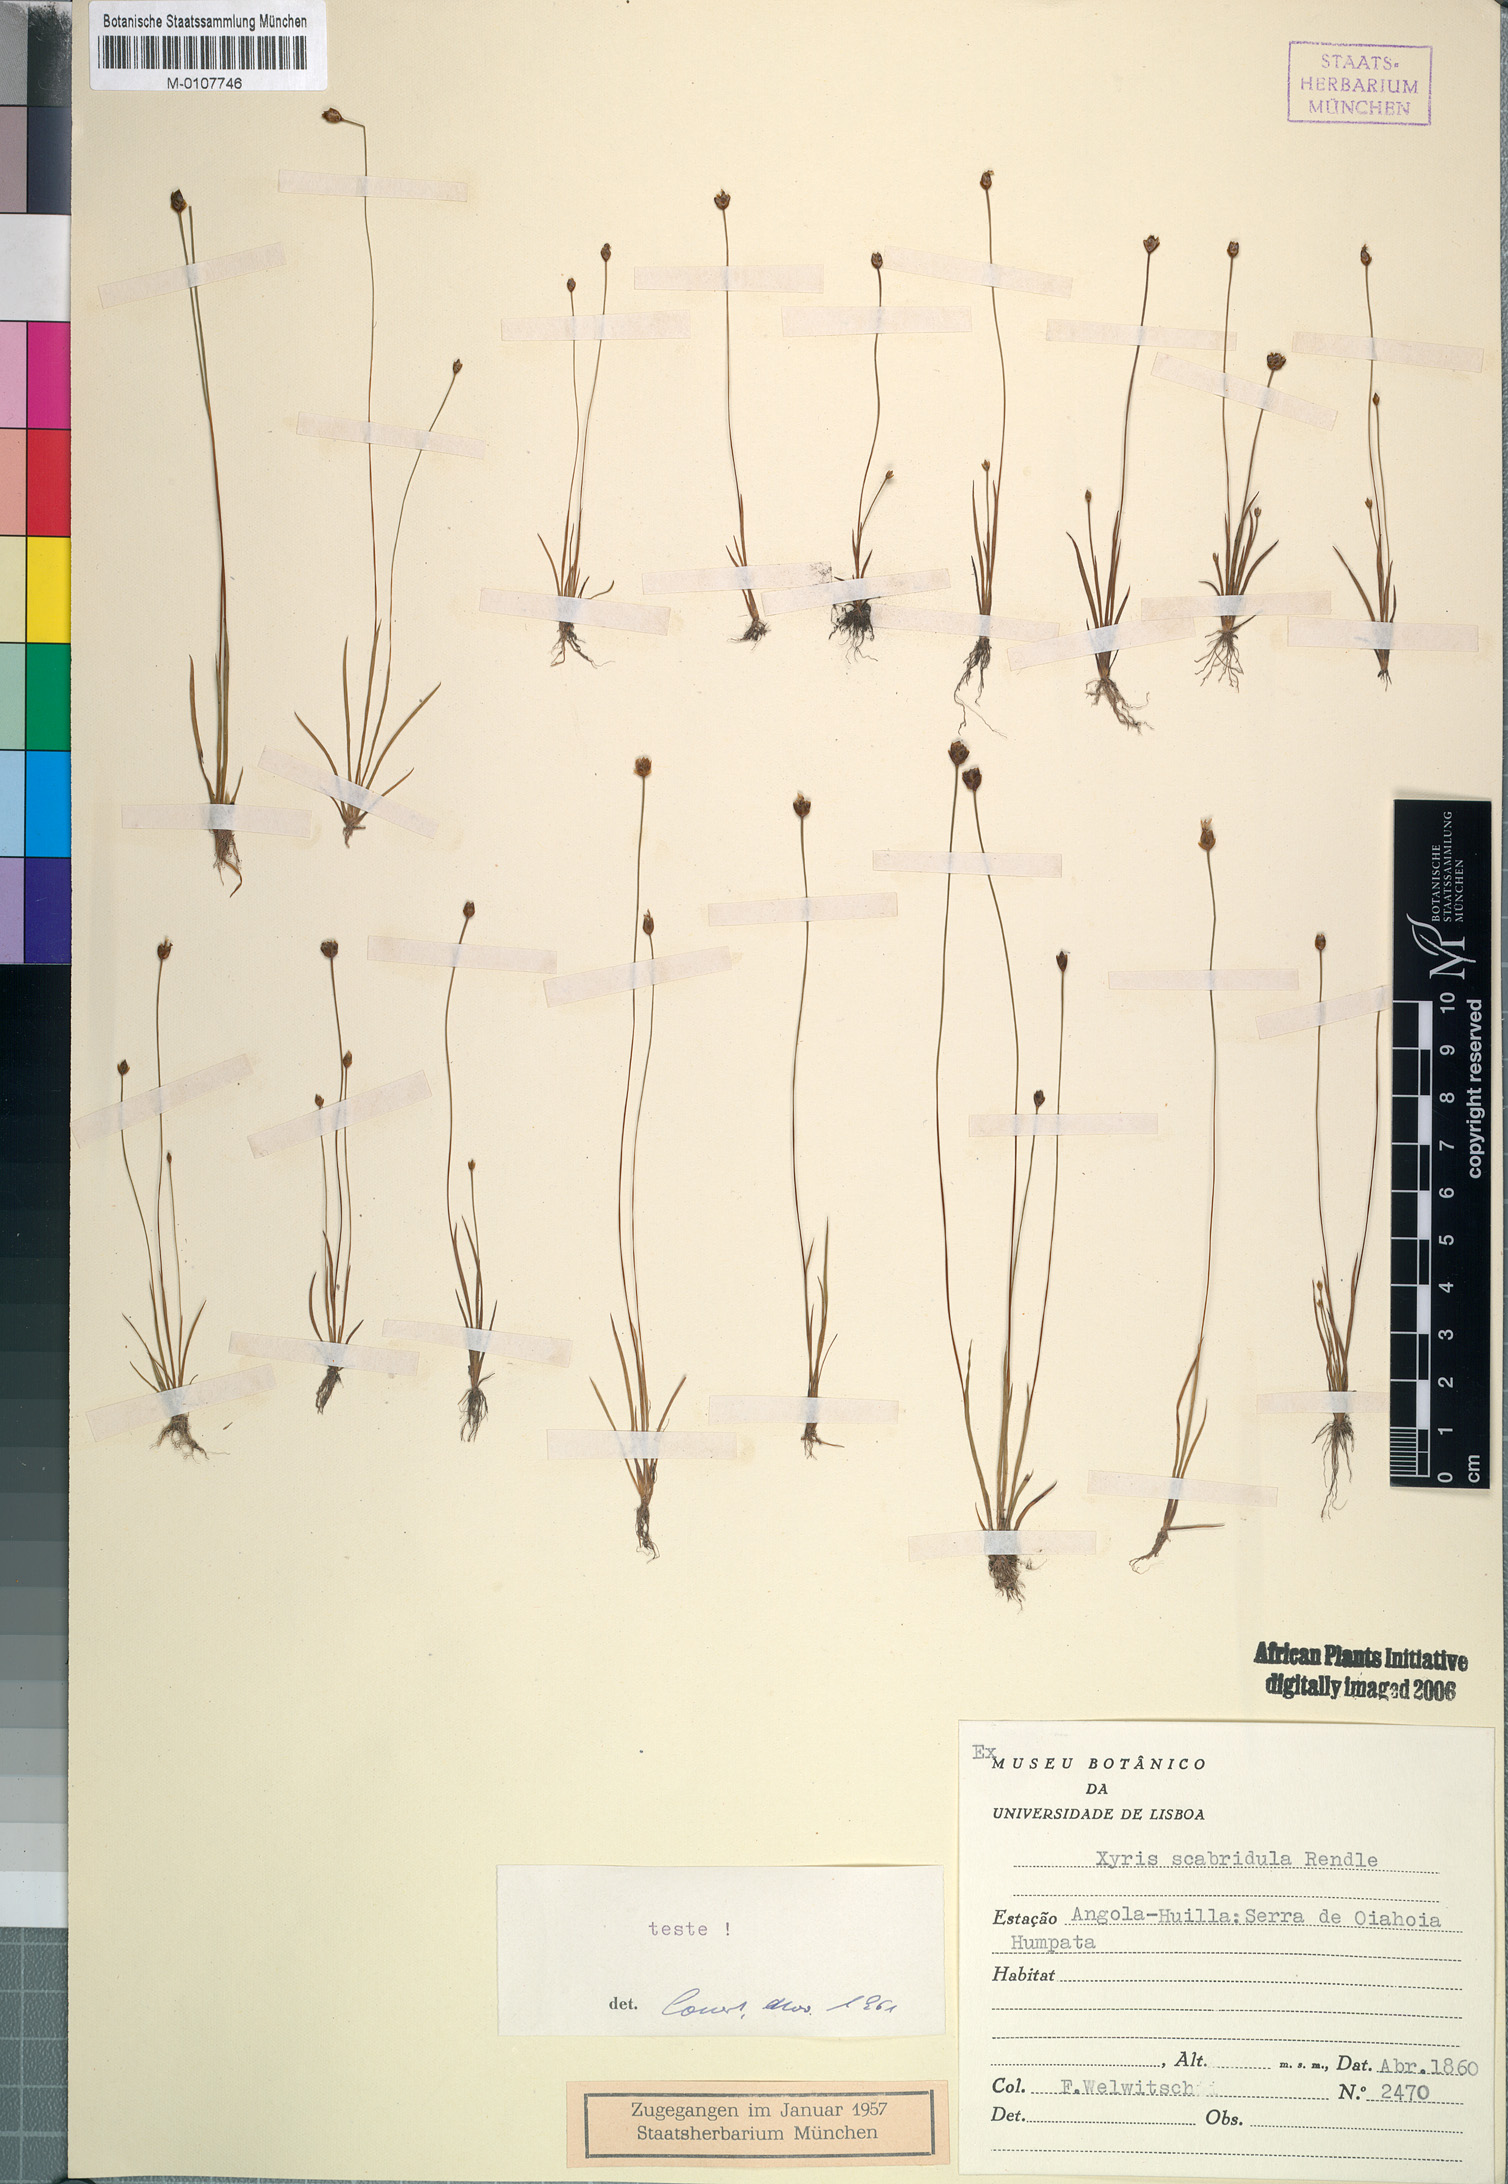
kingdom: Plantae
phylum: Tracheophyta
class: Liliopsida
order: Poales
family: Xyridaceae
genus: Xyris
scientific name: Xyris scabridula
